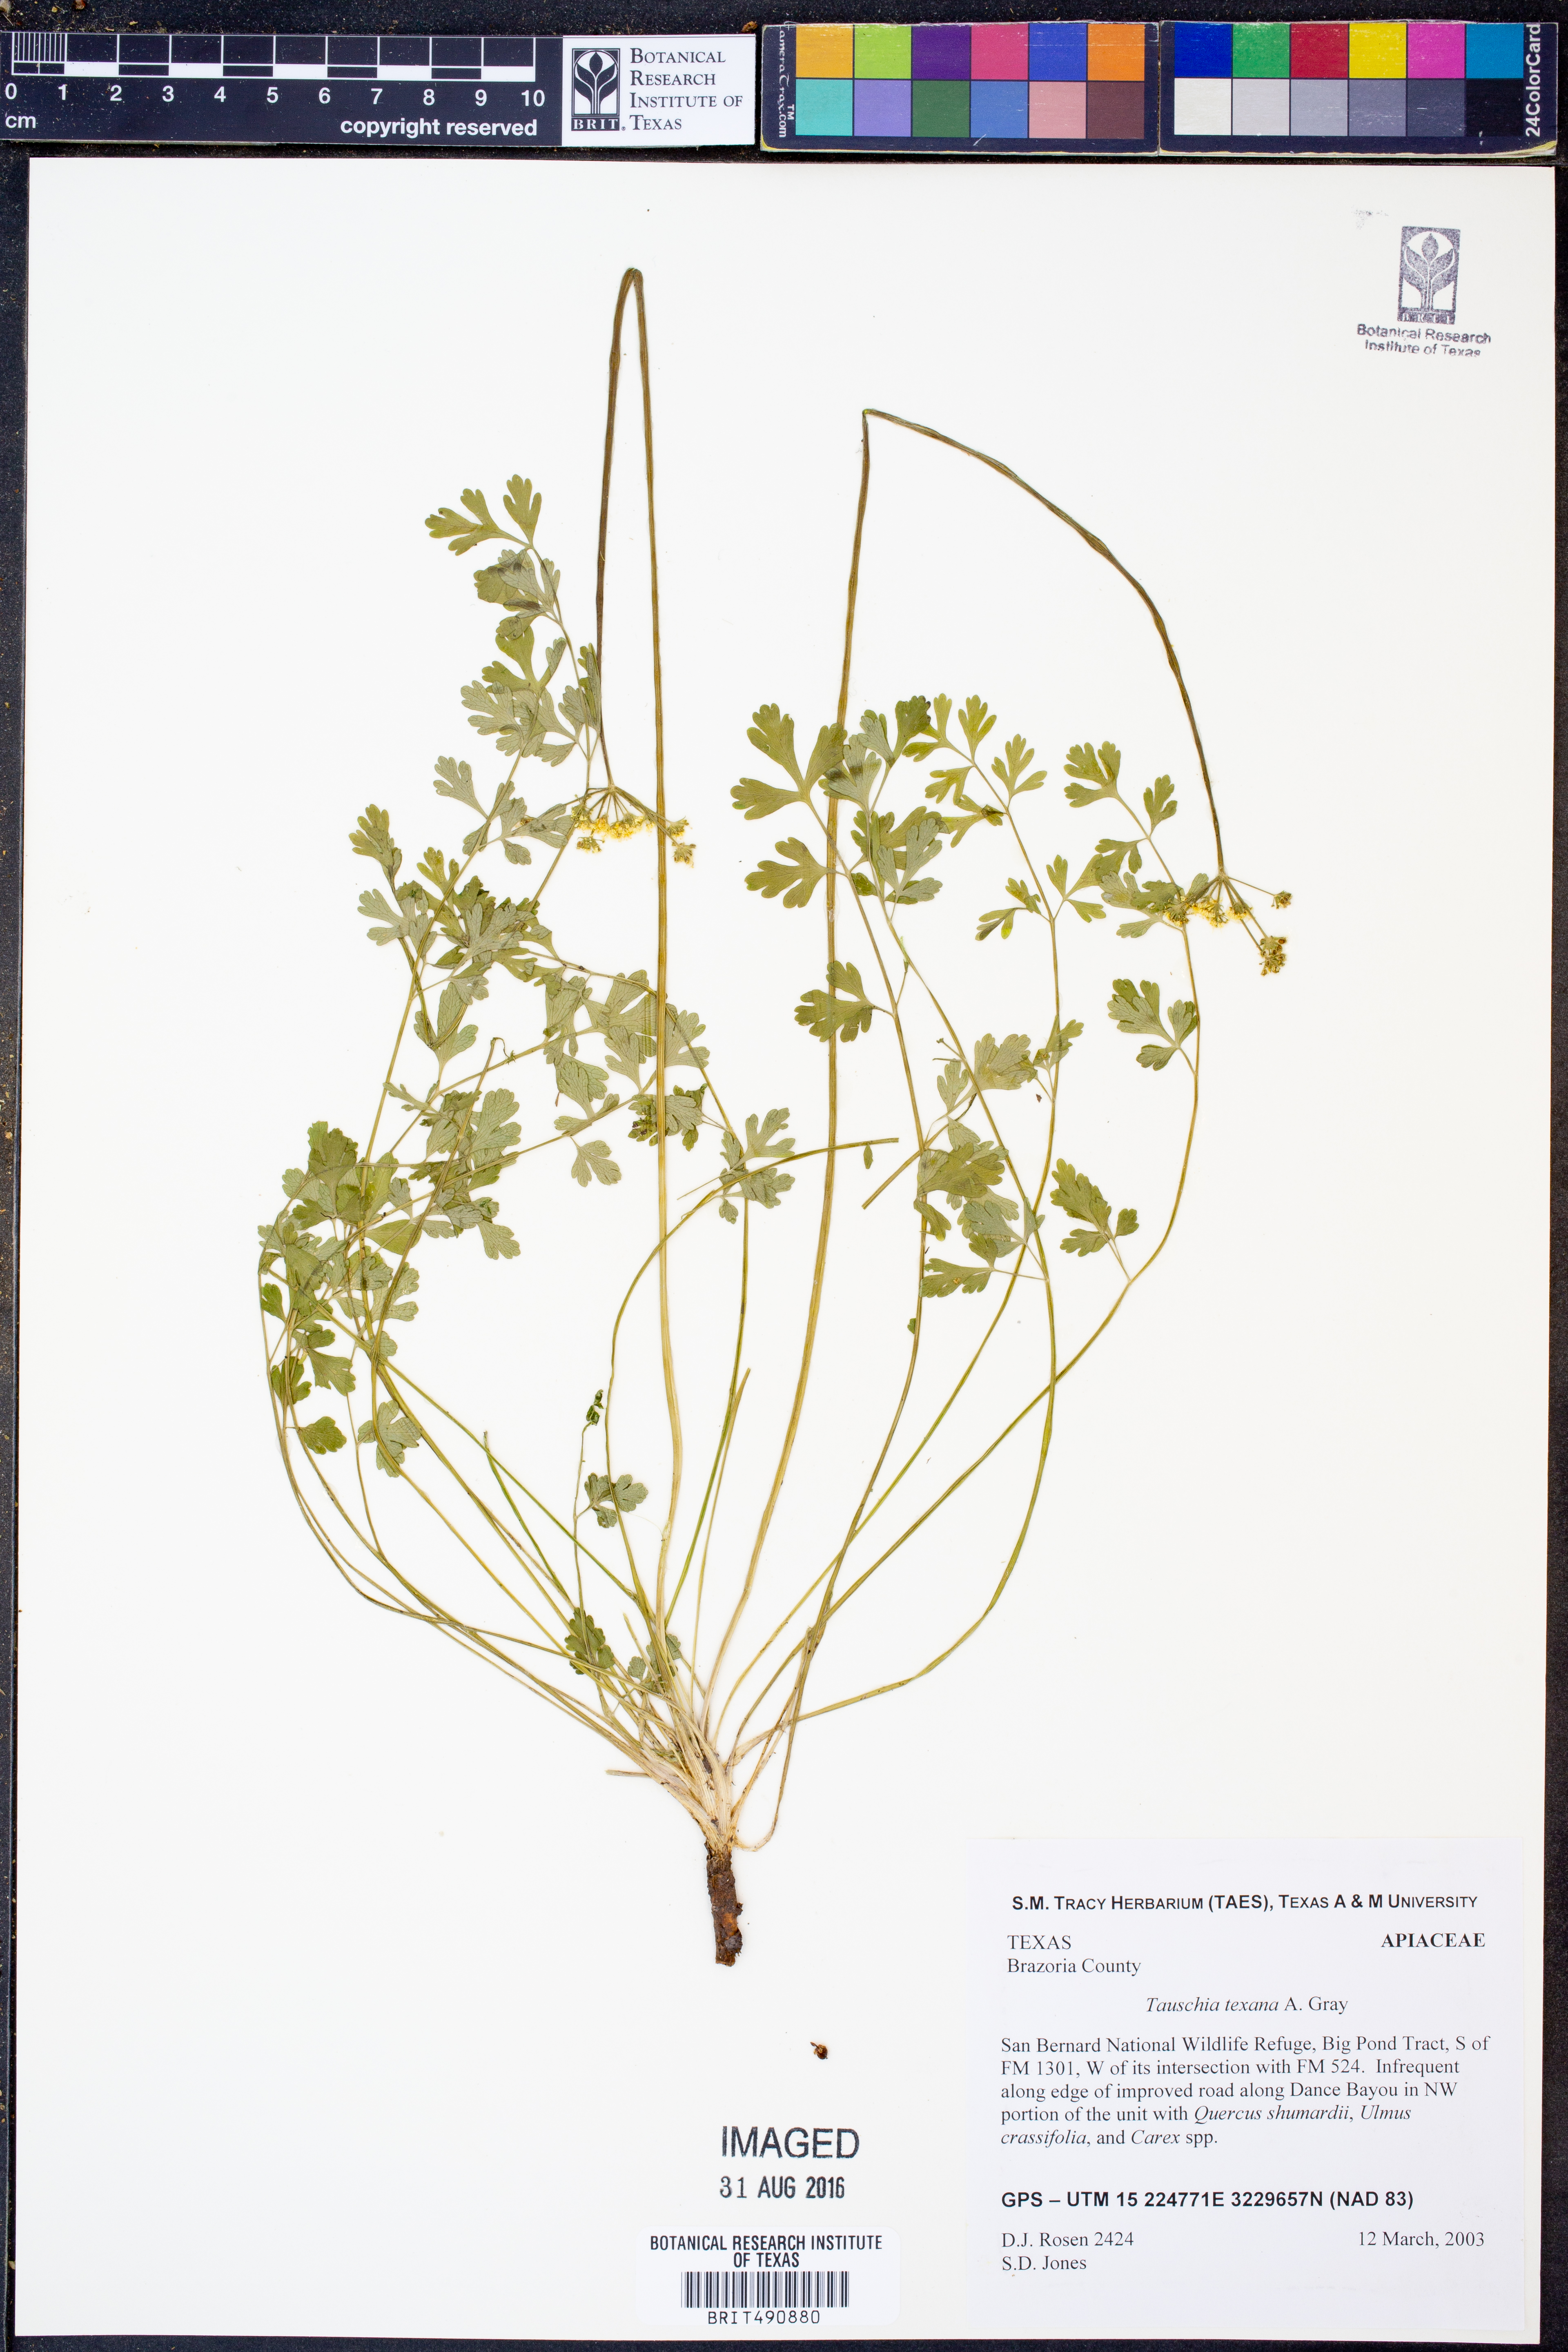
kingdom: Plantae
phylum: Tracheophyta
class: Magnoliopsida
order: Apiales
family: Apiaceae
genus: Tauschia
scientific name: Tauschia texana
